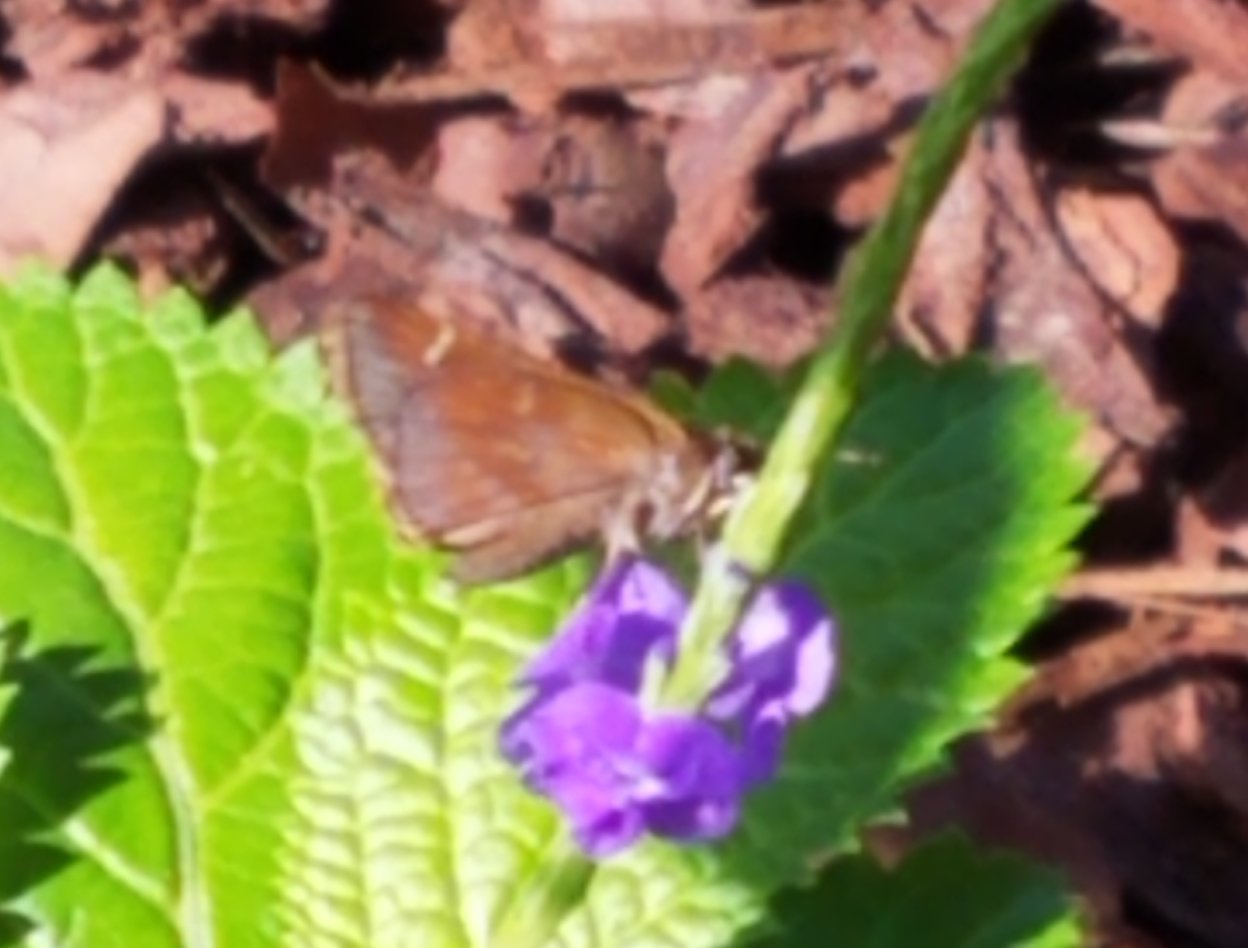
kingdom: Animalia
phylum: Arthropoda
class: Insecta
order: Lepidoptera
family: Hesperiidae
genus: Lerema
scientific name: Lerema accius
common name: Clouded Skipper
